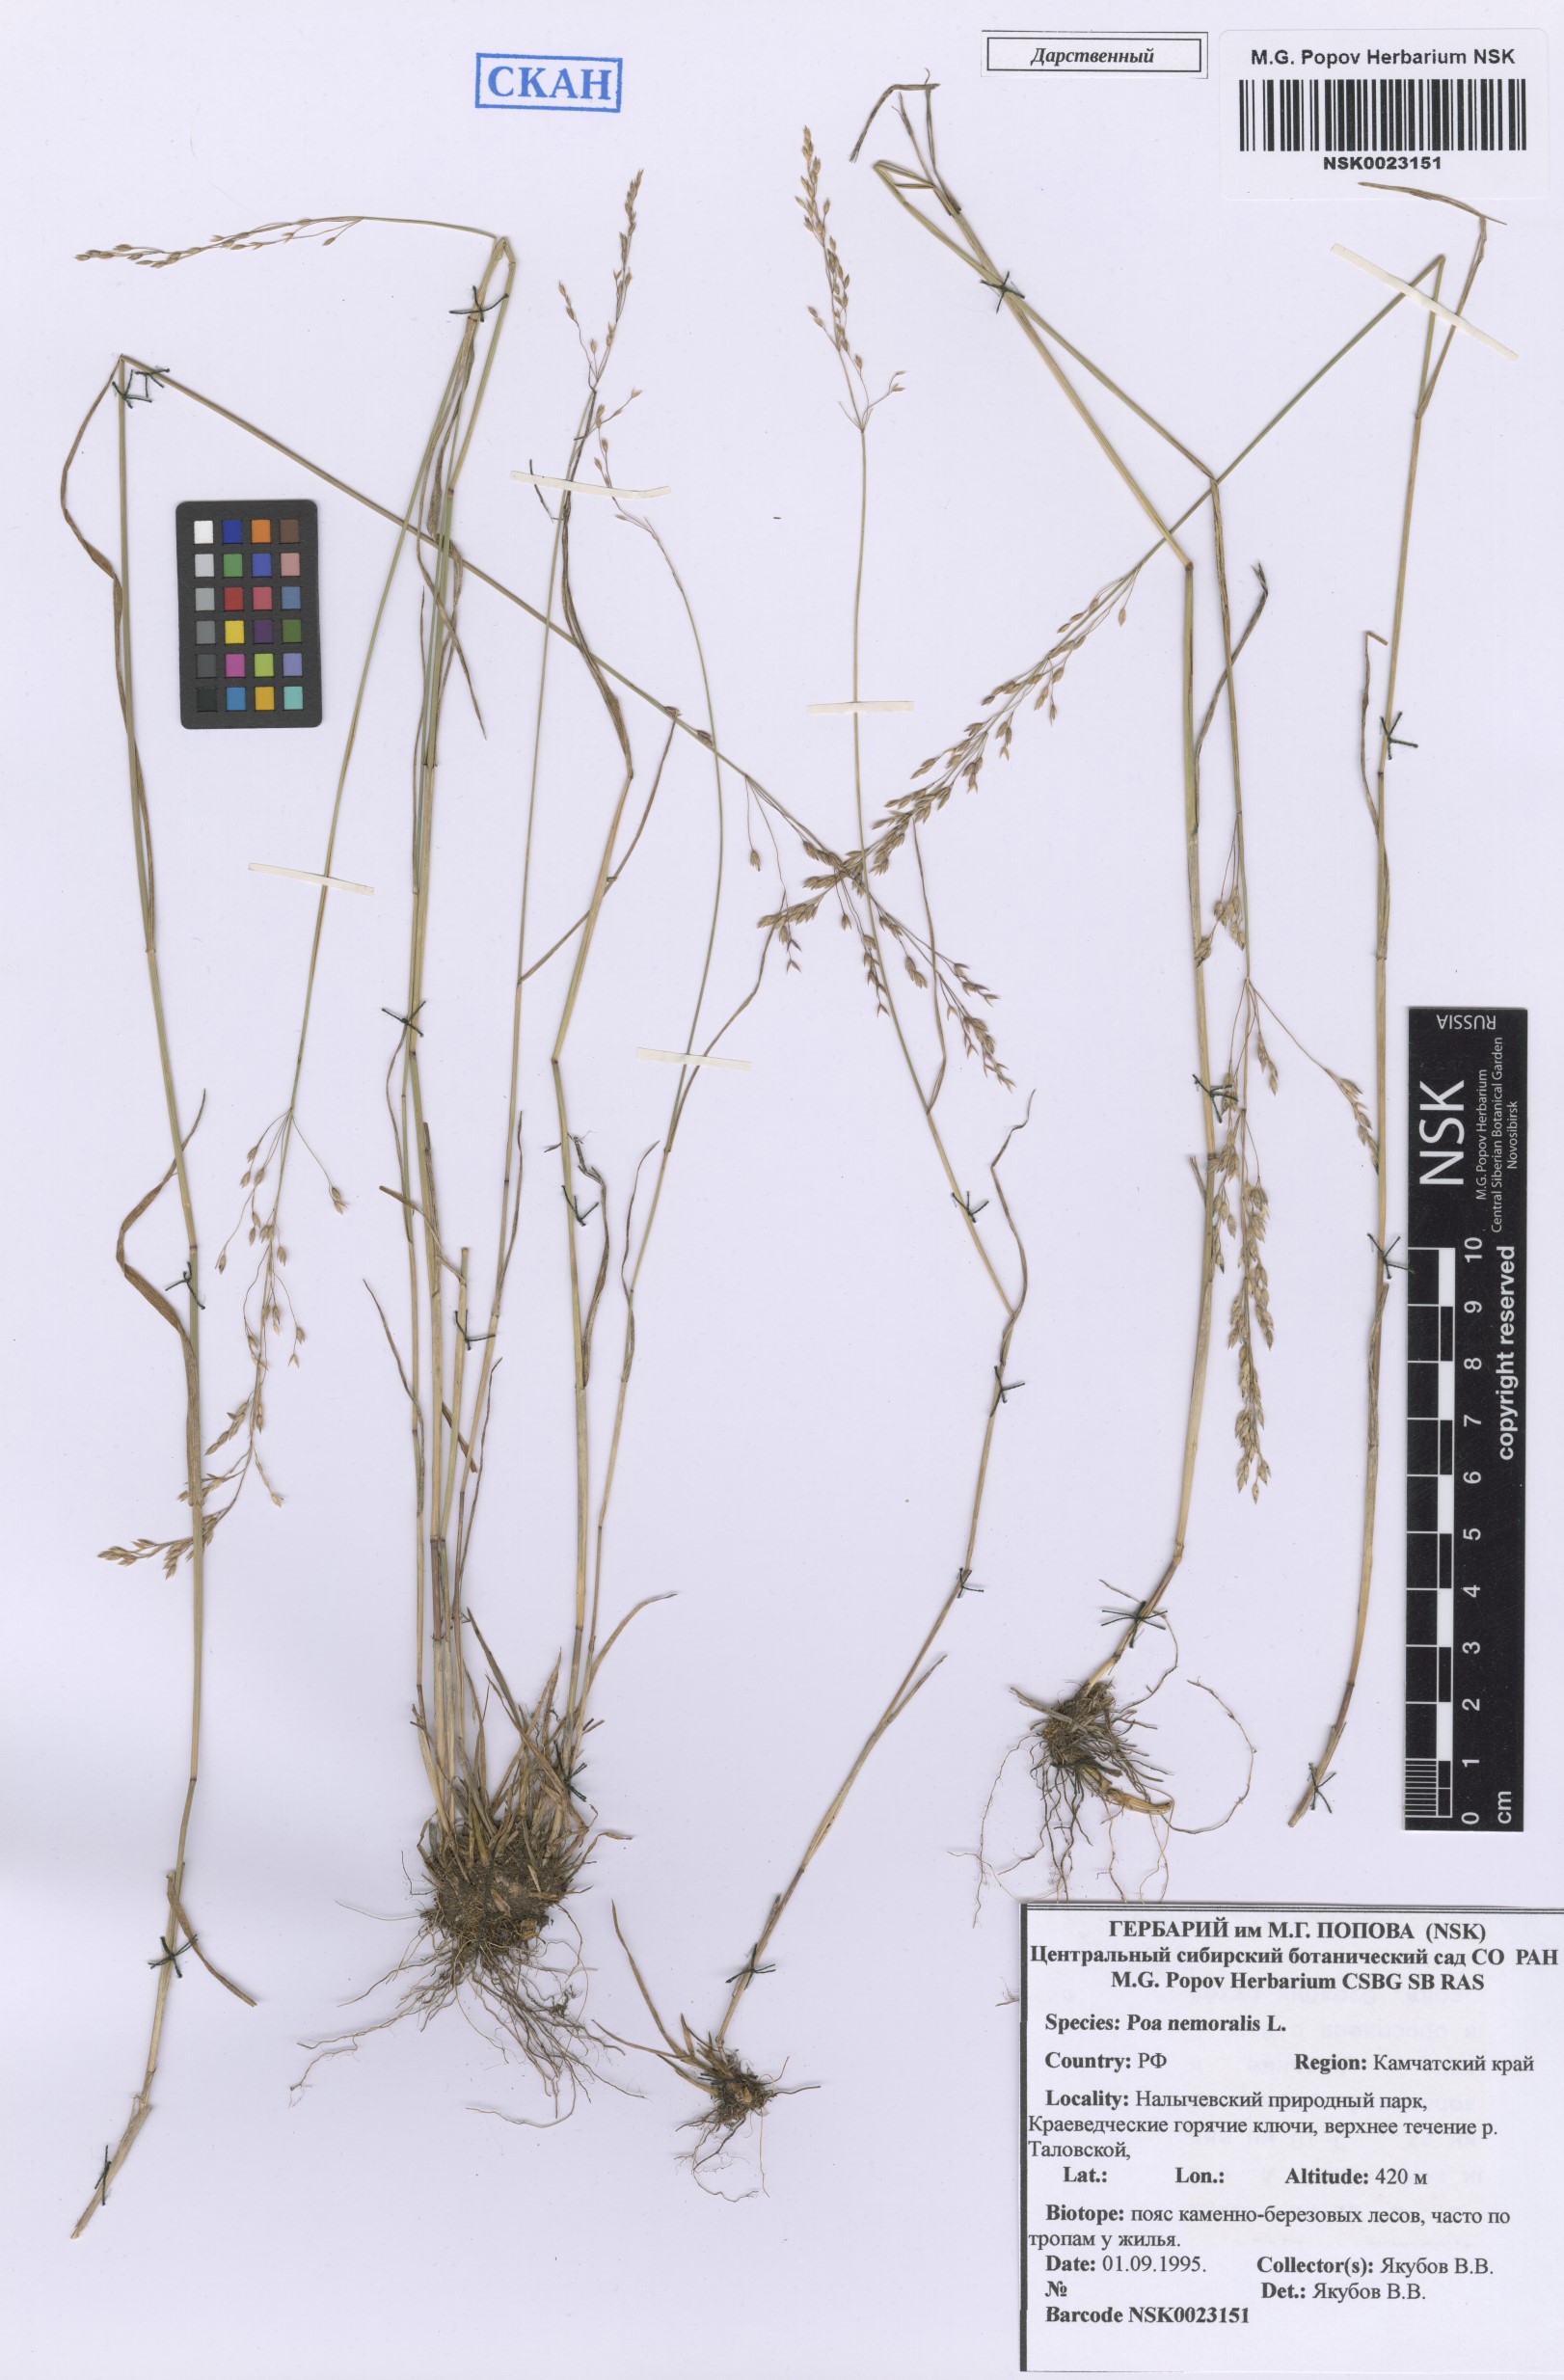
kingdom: Plantae
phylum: Tracheophyta
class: Liliopsida
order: Poales
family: Poaceae
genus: Poa
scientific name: Poa nemoralis
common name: Wood bluegrass
